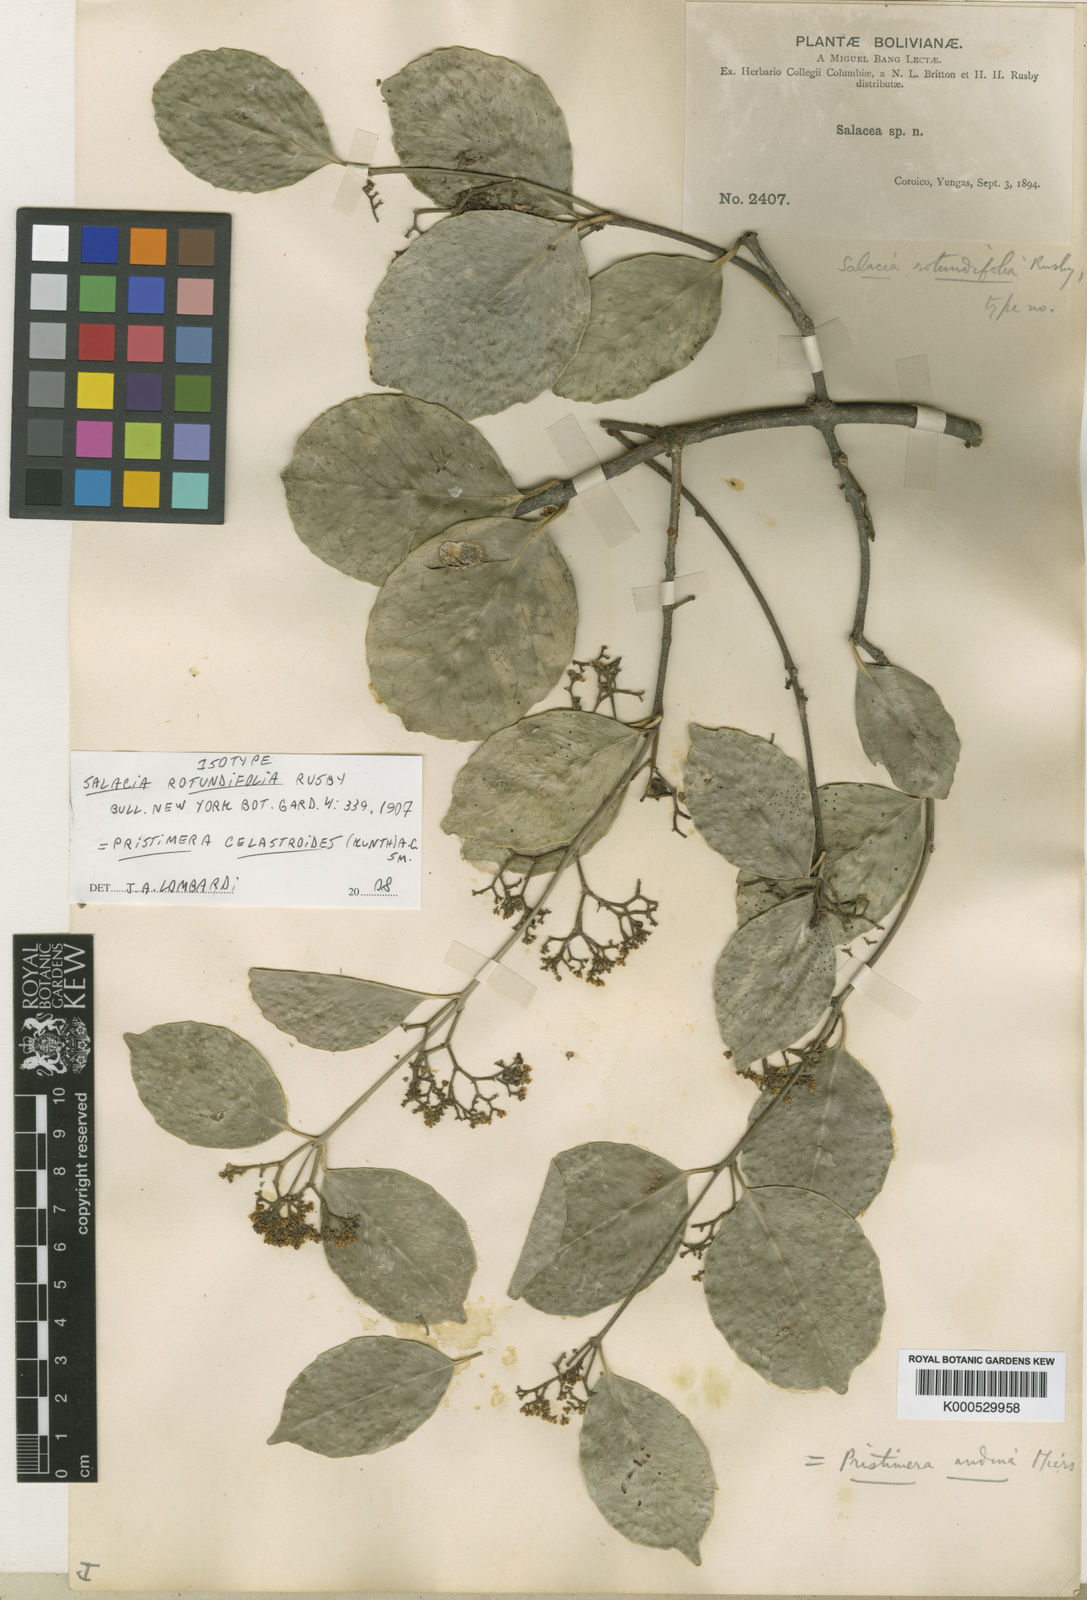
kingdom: Plantae
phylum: Tracheophyta
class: Magnoliopsida
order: Celastrales
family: Celastraceae
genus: Pristimera
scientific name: Pristimera celastroides
